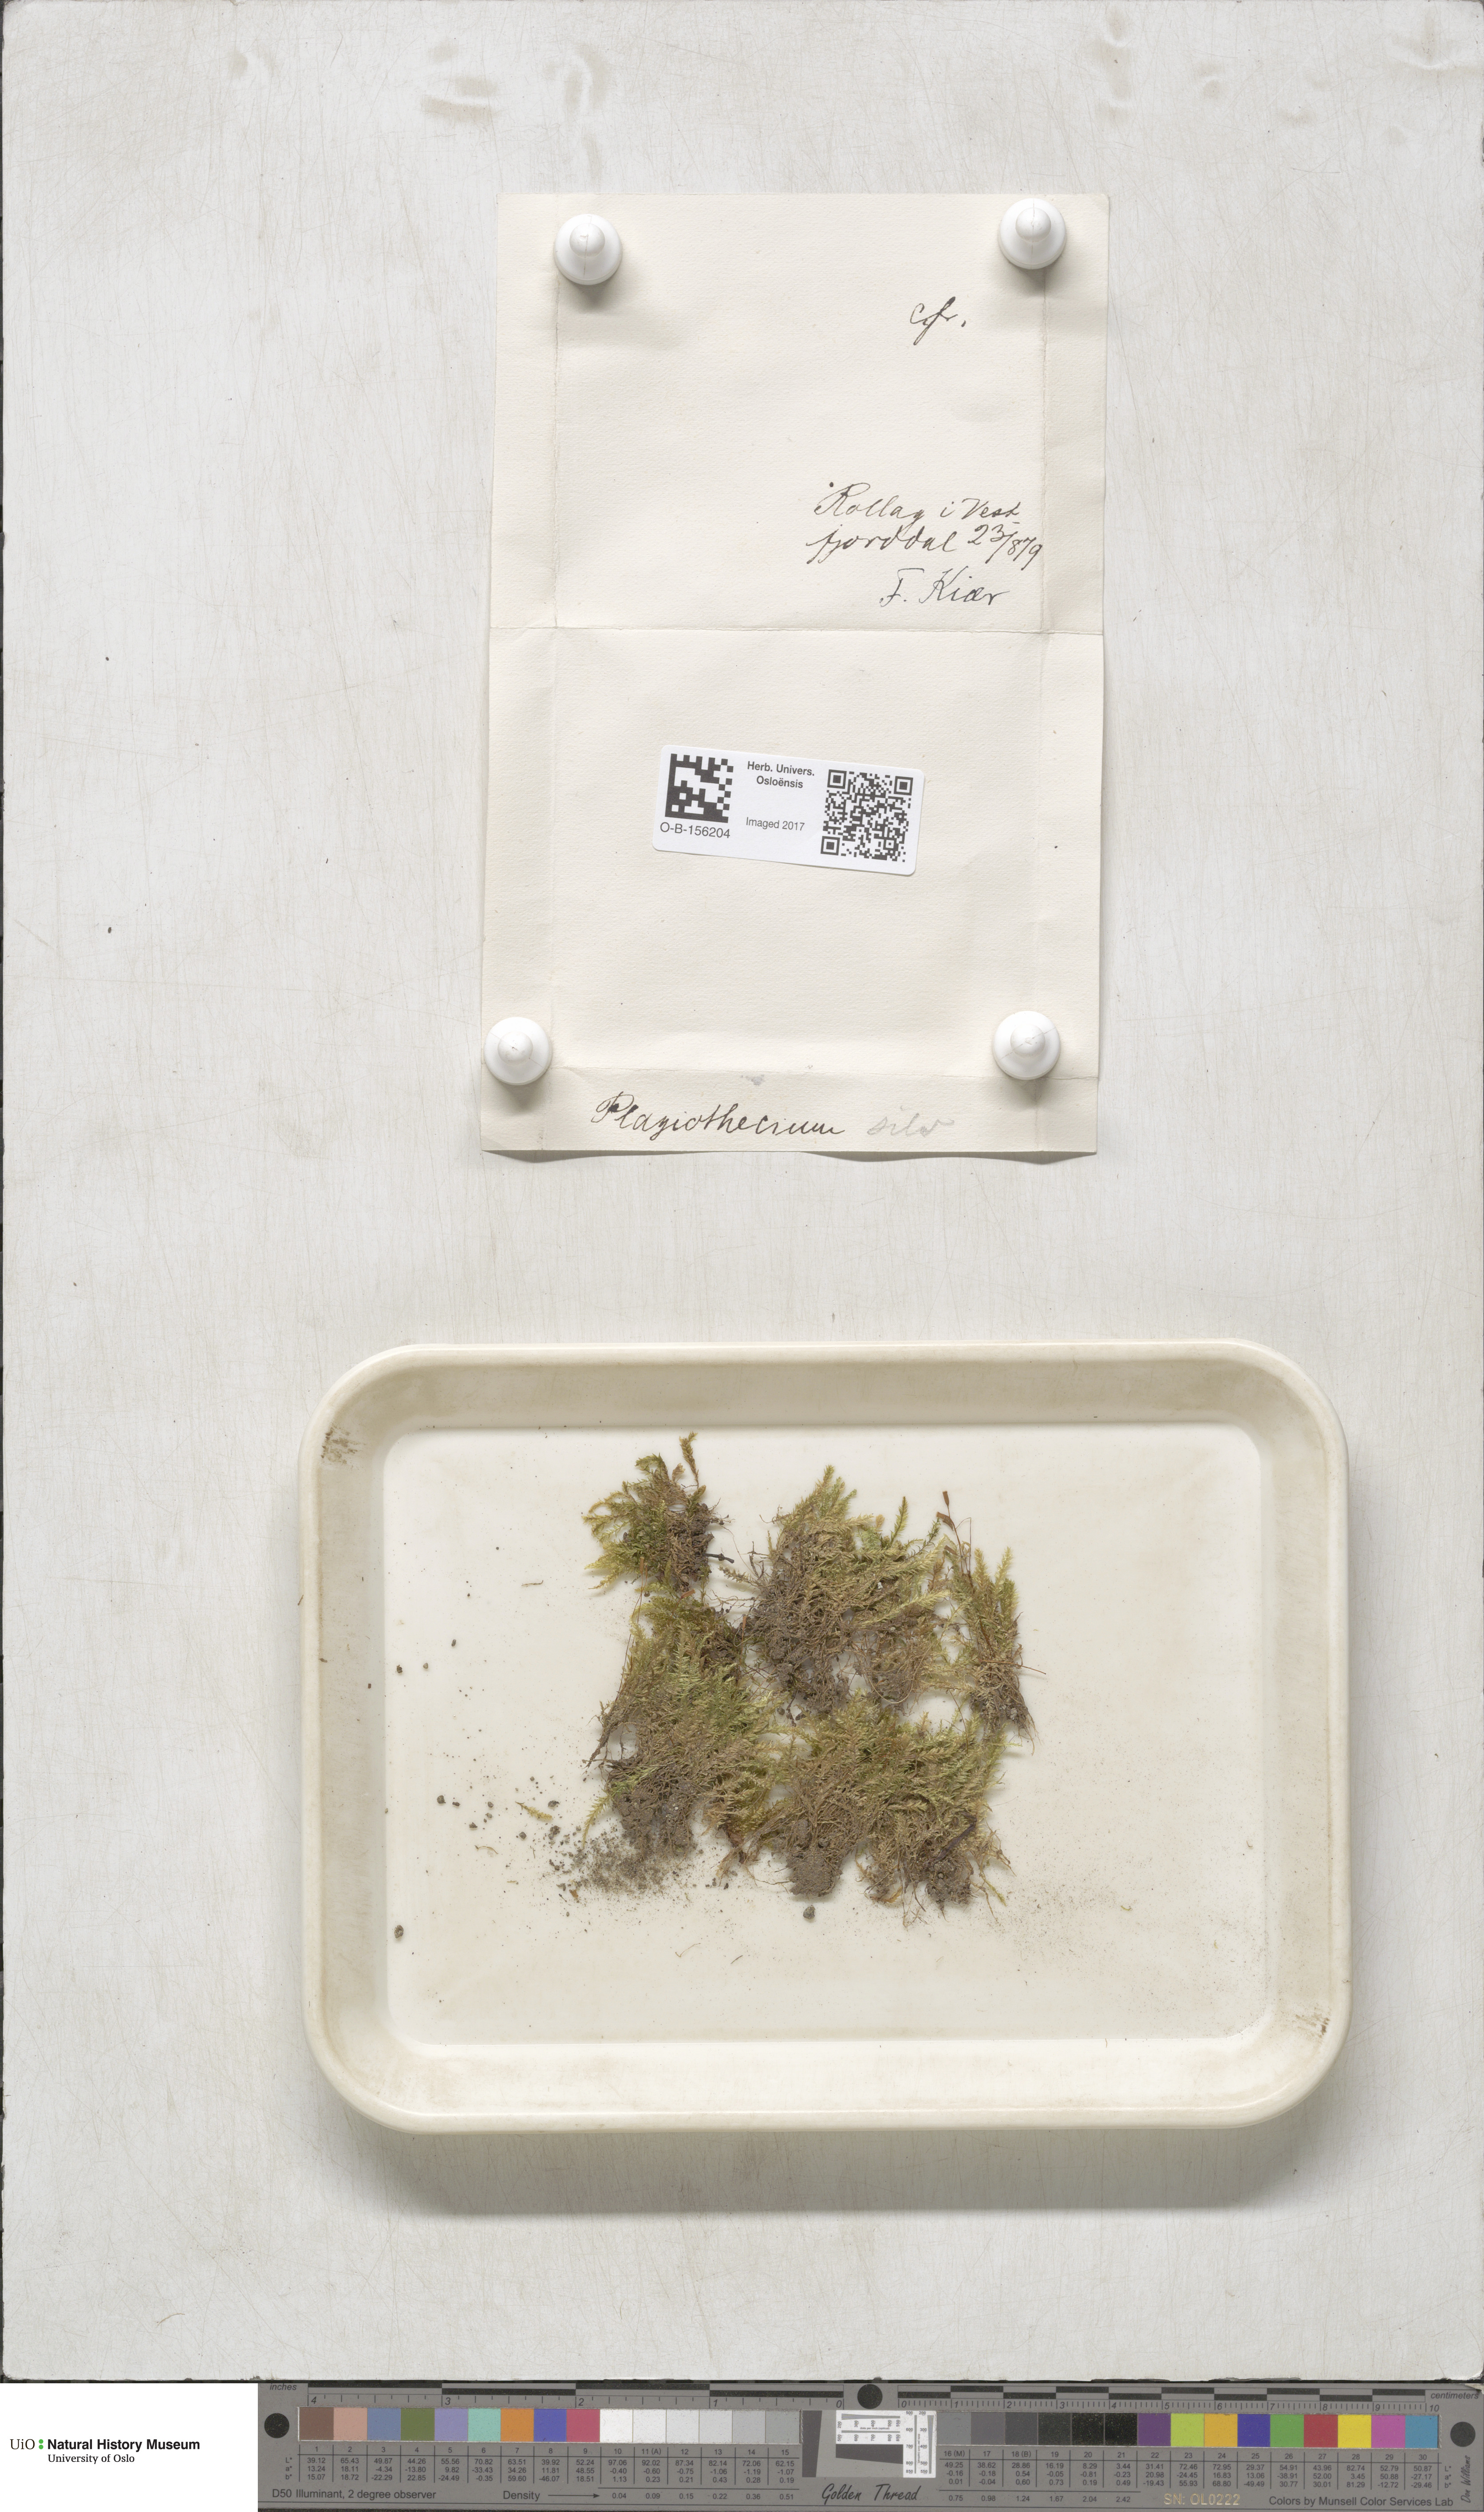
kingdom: Plantae
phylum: Bryophyta
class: Bryopsida
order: Hypnales
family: Plagiotheciaceae
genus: Plagiothecium
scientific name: Plagiothecium nemorale
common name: Woodsy silk-moss
